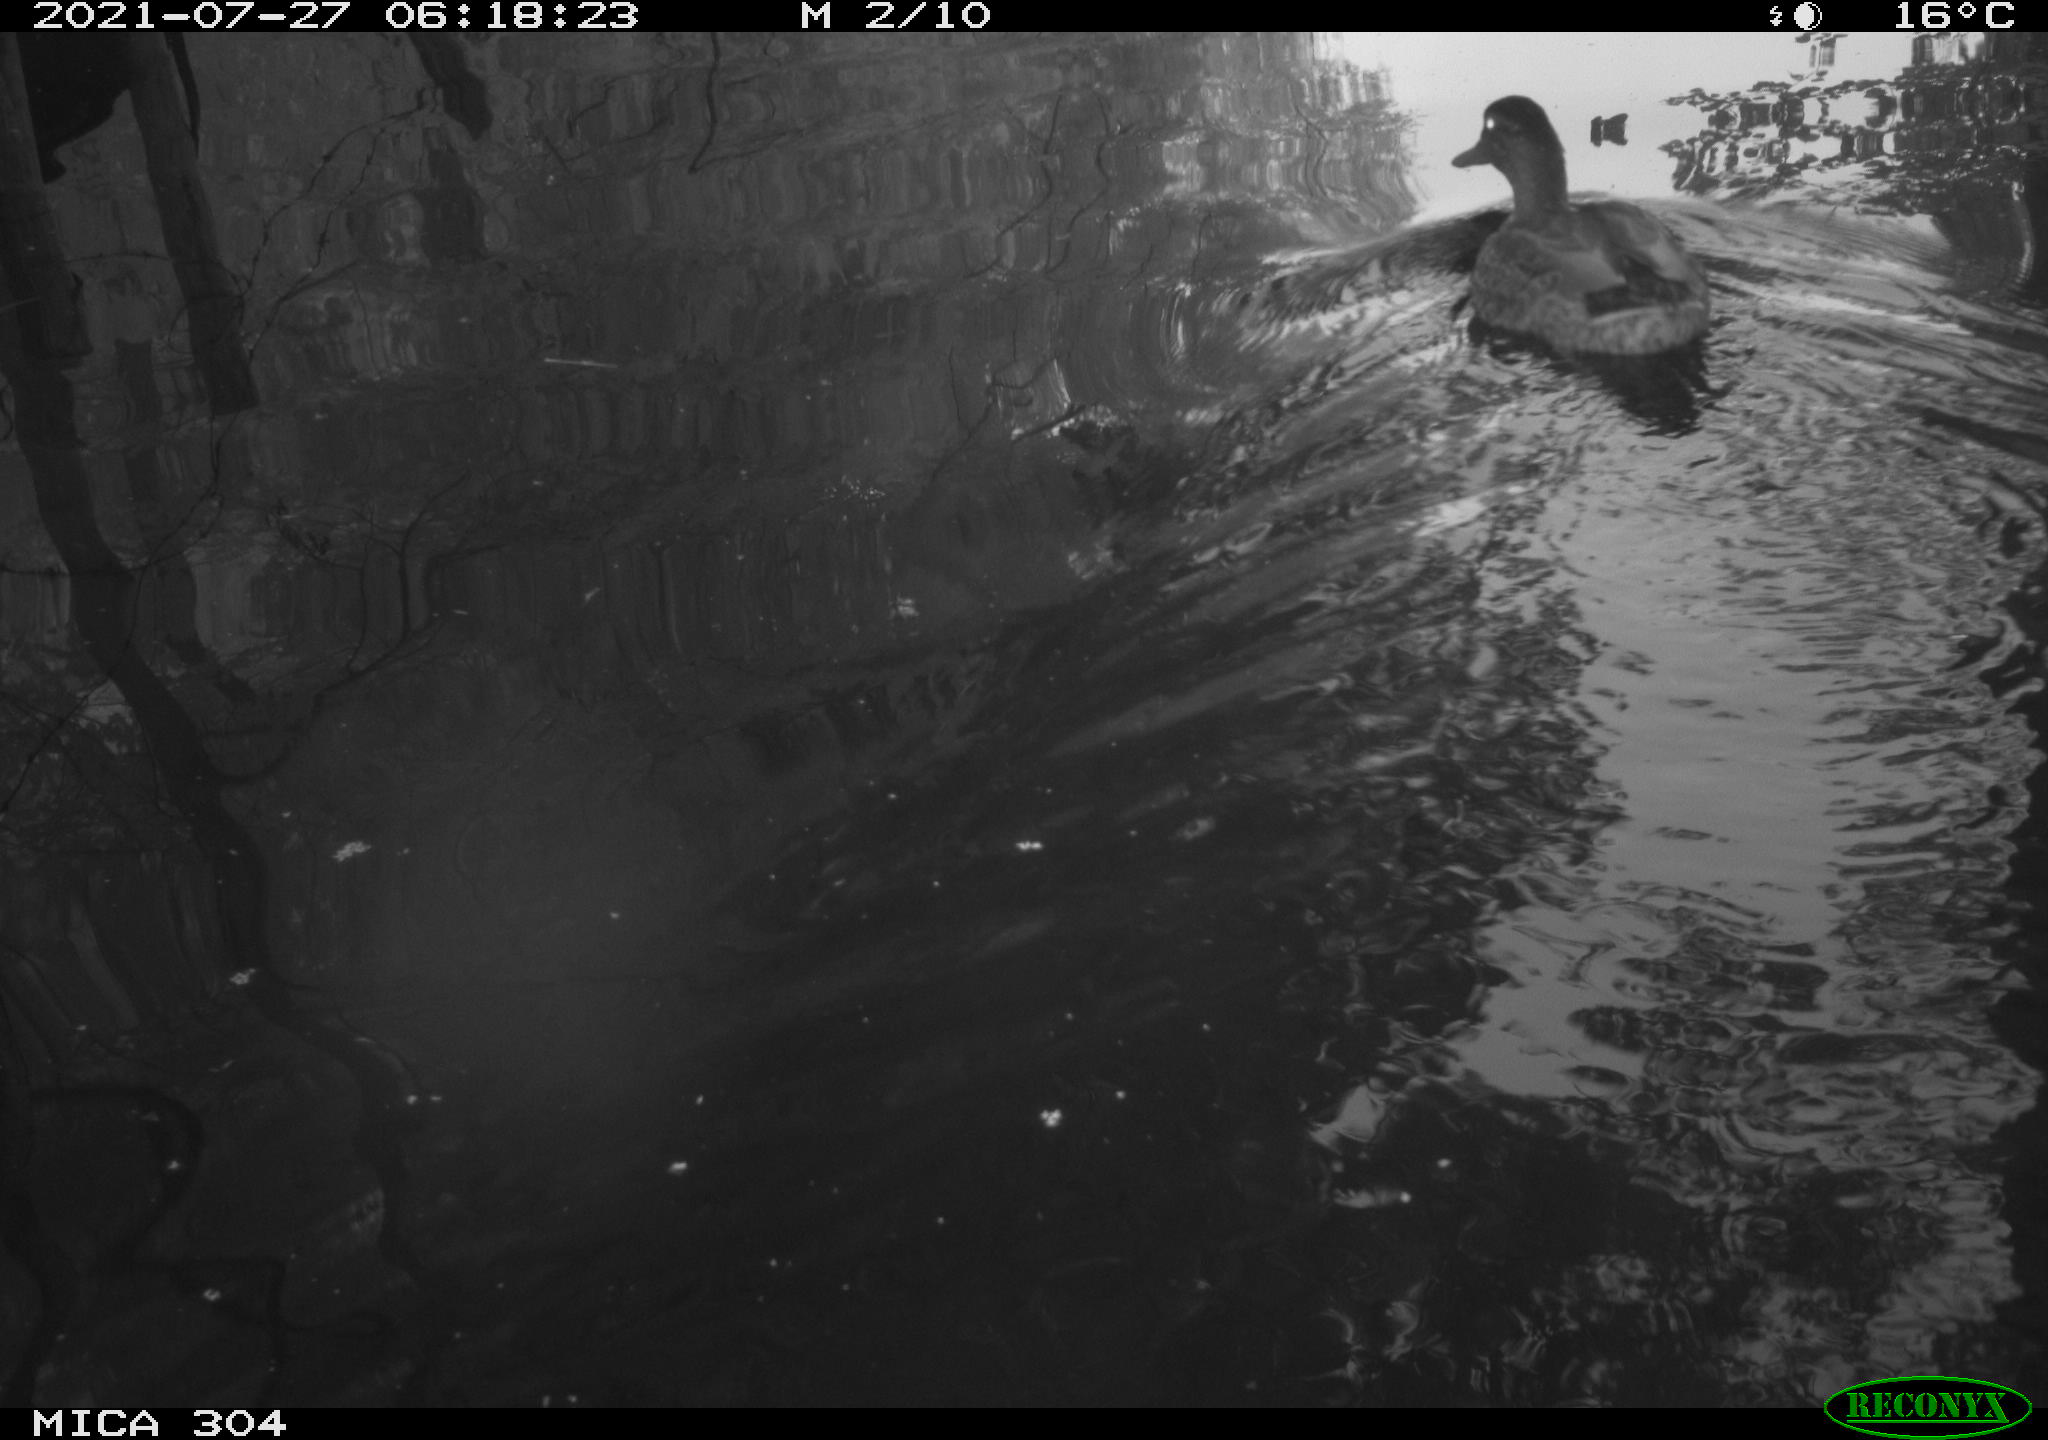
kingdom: Animalia
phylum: Chordata
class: Aves
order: Anseriformes
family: Anatidae
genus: Anas
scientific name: Anas platyrhynchos
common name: Mallard
